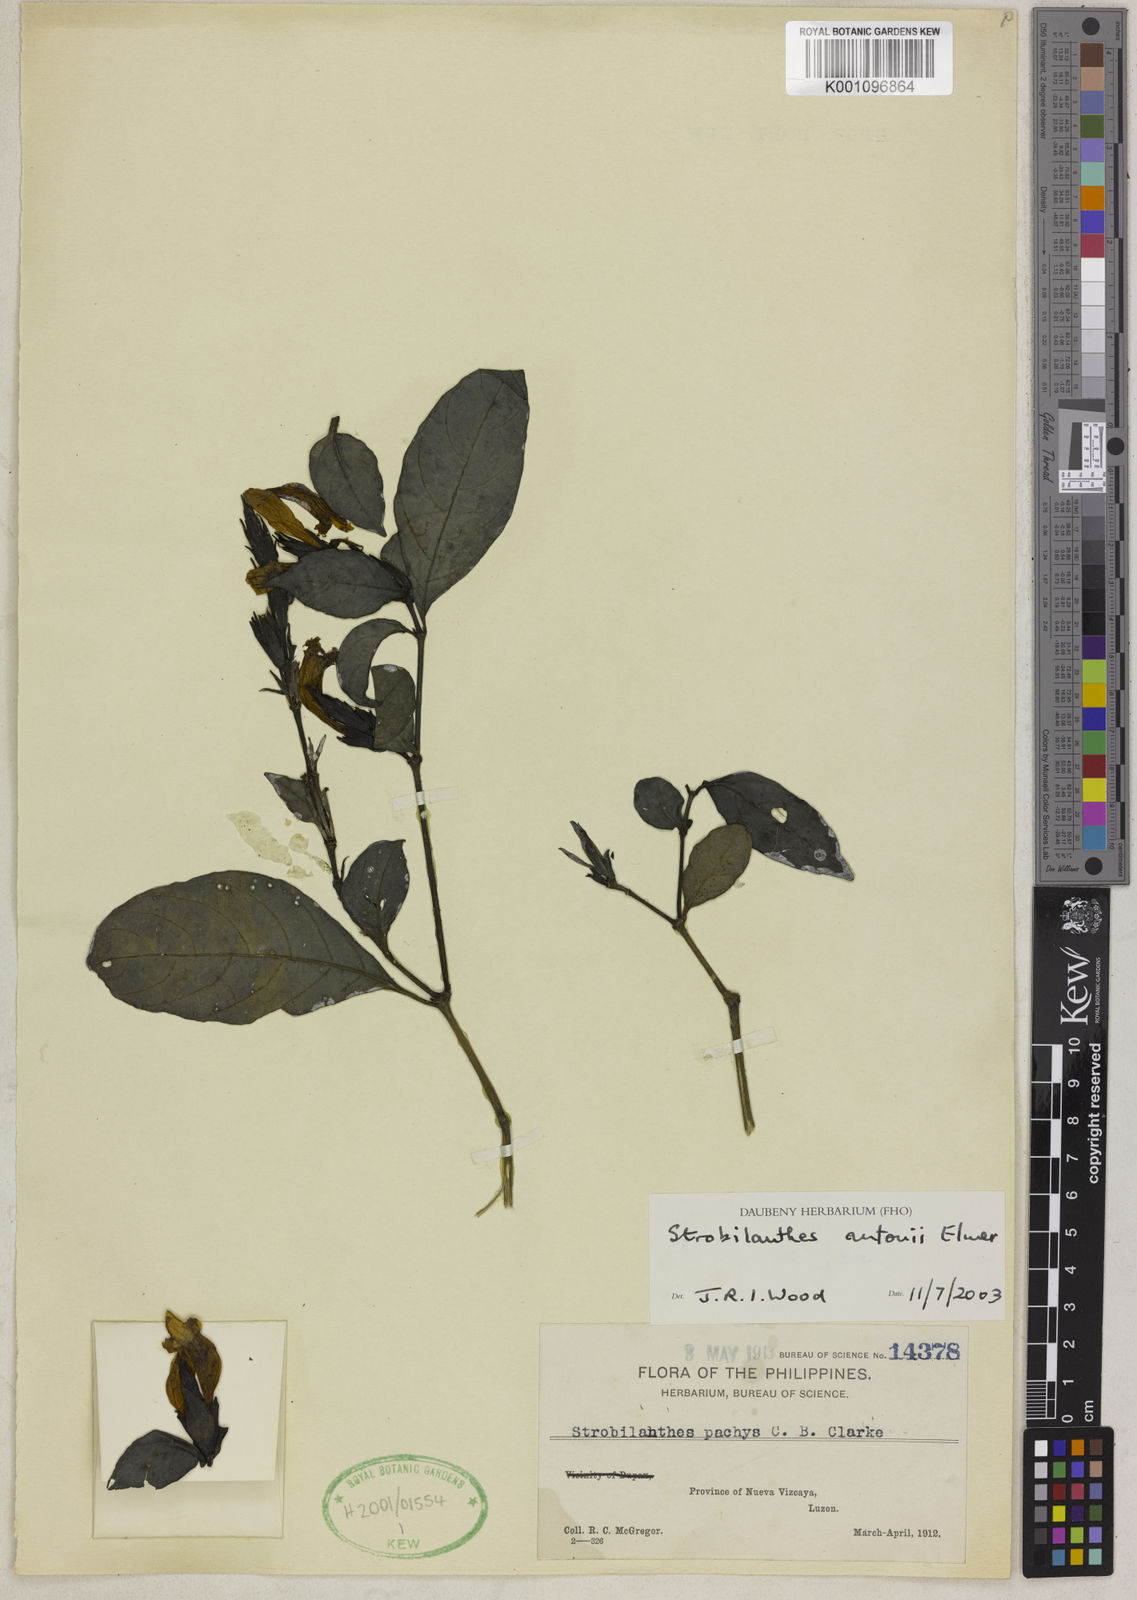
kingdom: Plantae
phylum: Tracheophyta
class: Magnoliopsida
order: Lamiales
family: Acanthaceae
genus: Strobilanthes
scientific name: Strobilanthes antonii
